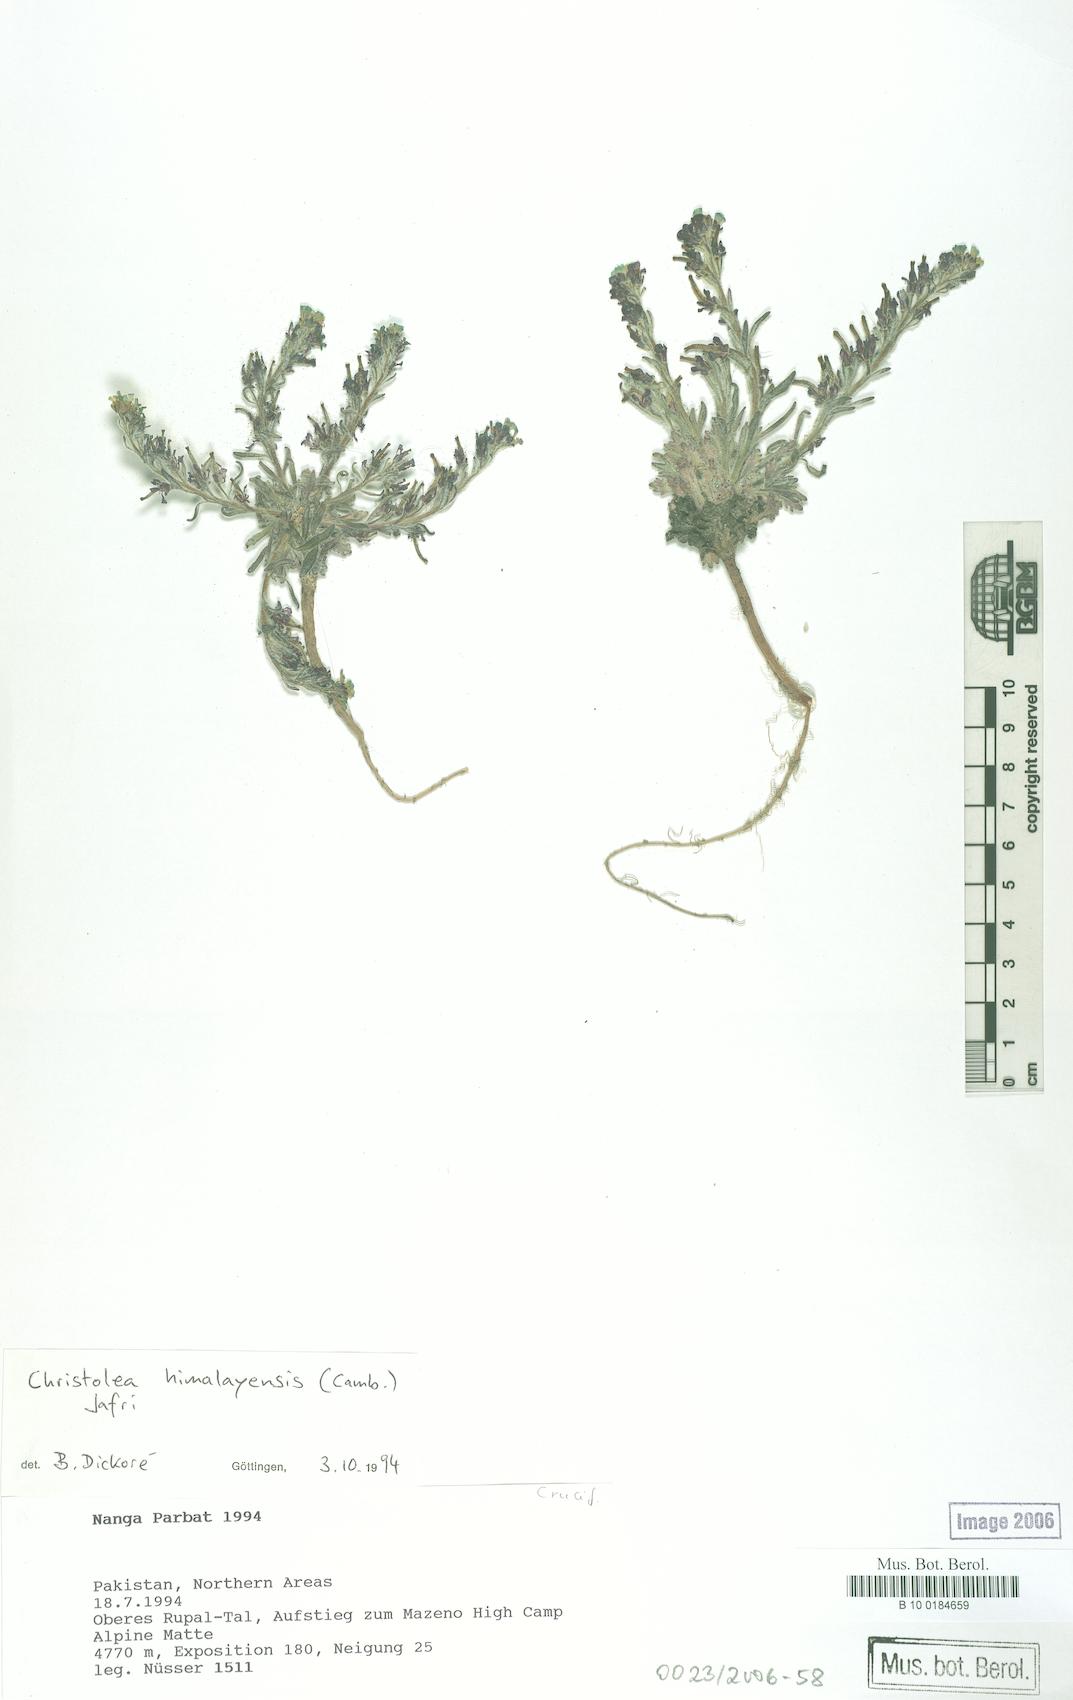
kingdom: Plantae
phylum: Tracheophyta
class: Magnoliopsida
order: Brassicales
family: Brassicaceae
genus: Solms-laubachia
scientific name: Solms-laubachia himalayensis
